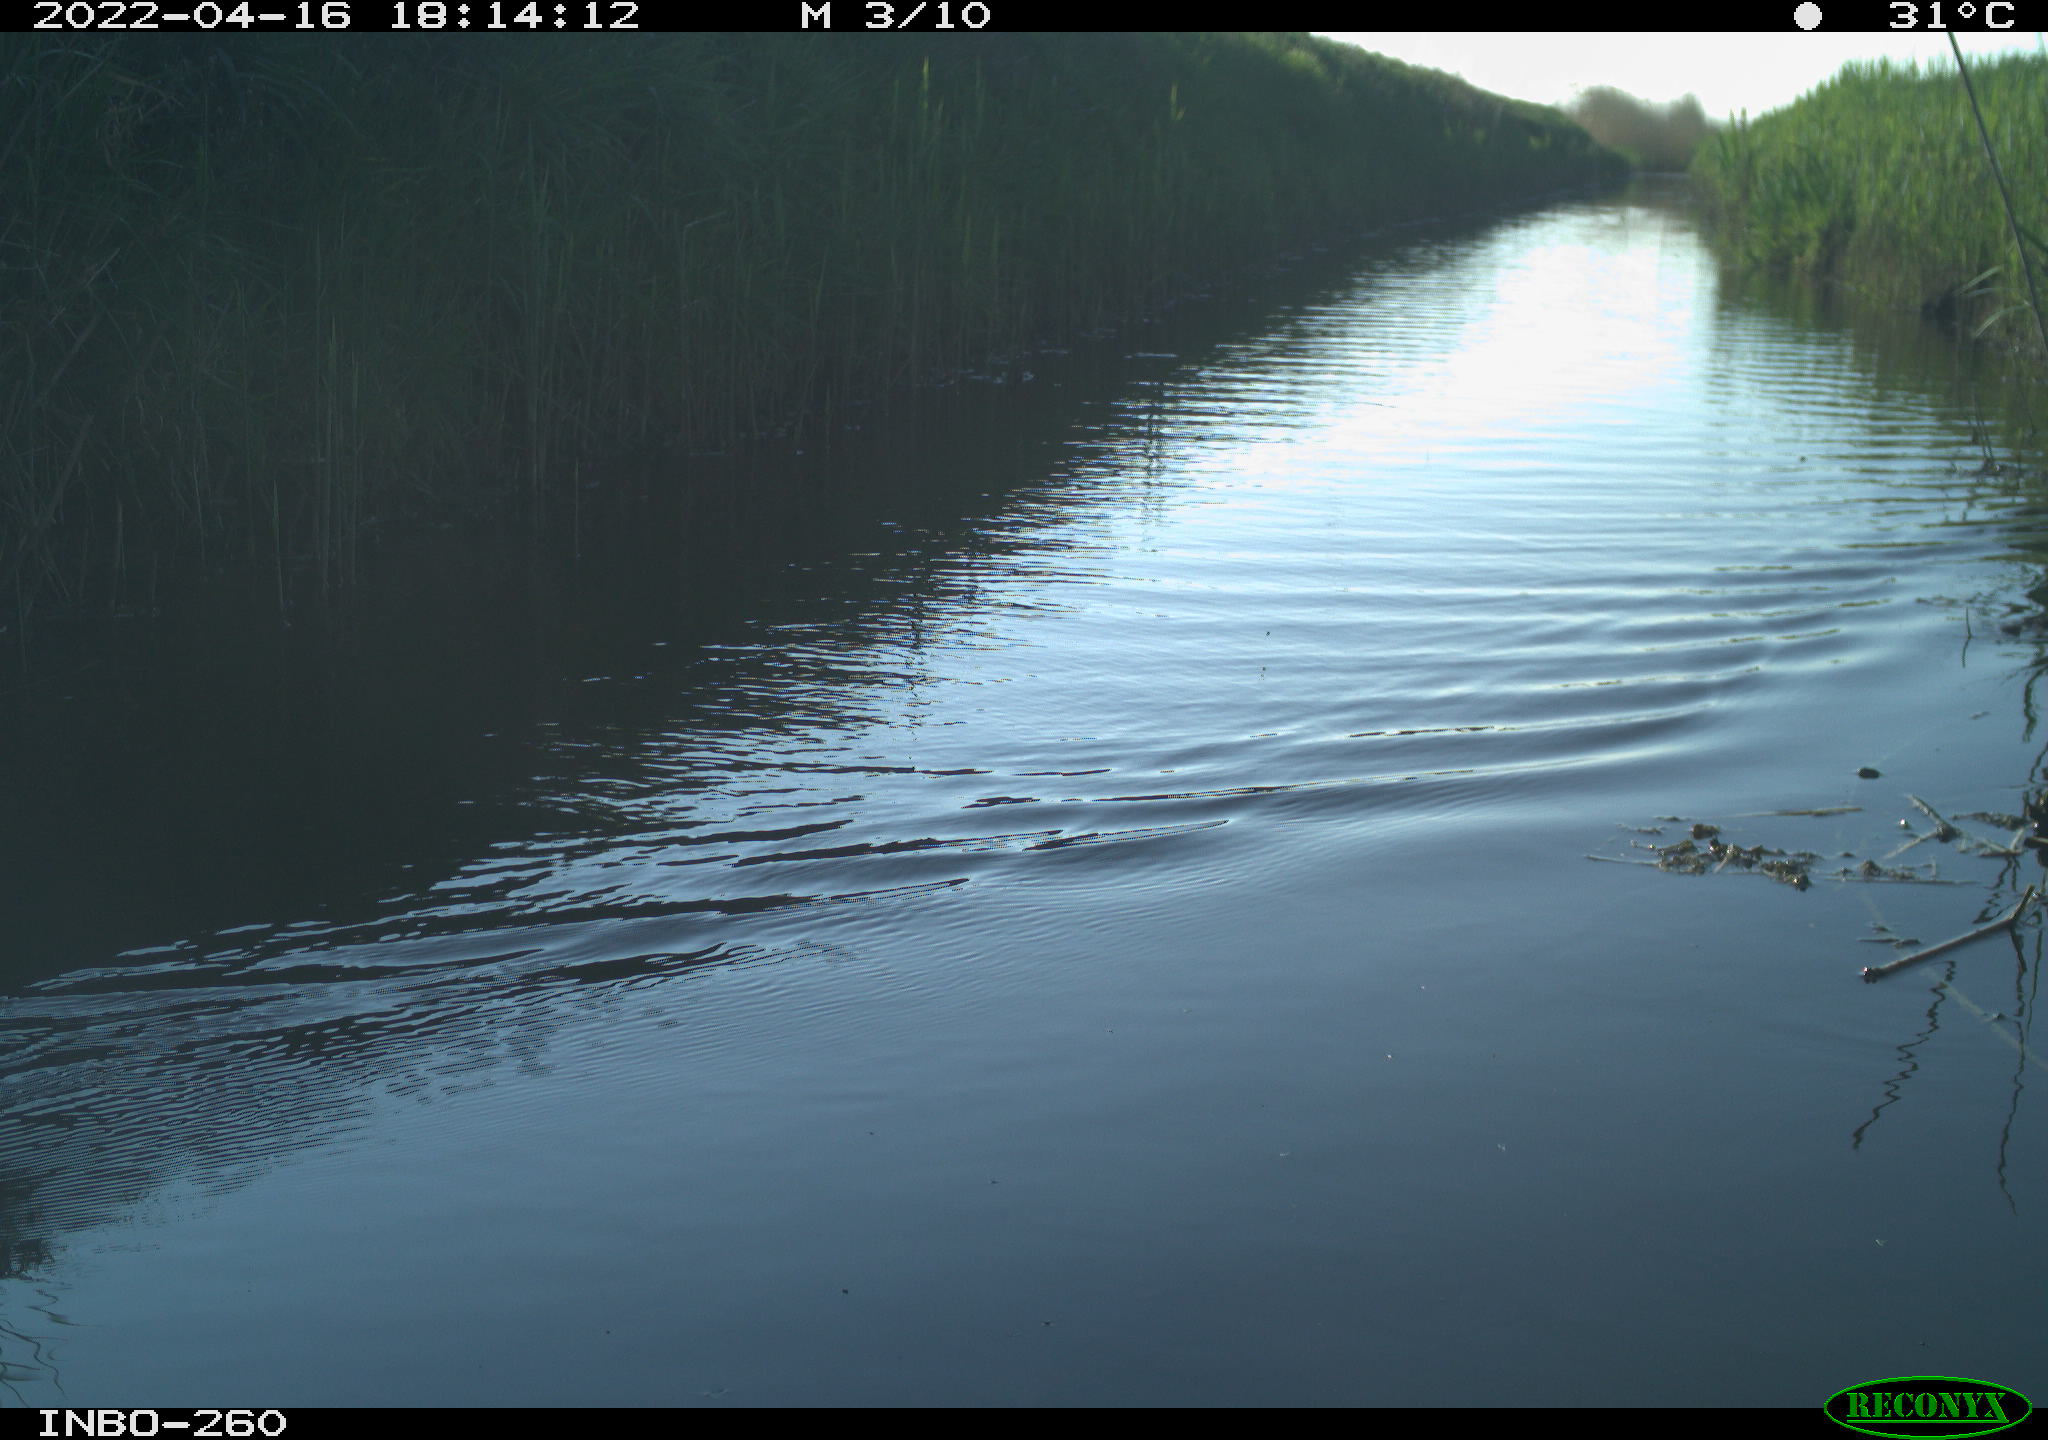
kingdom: Animalia
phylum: Chordata
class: Aves
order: Gruiformes
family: Rallidae
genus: Fulica
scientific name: Fulica atra
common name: Eurasian coot
